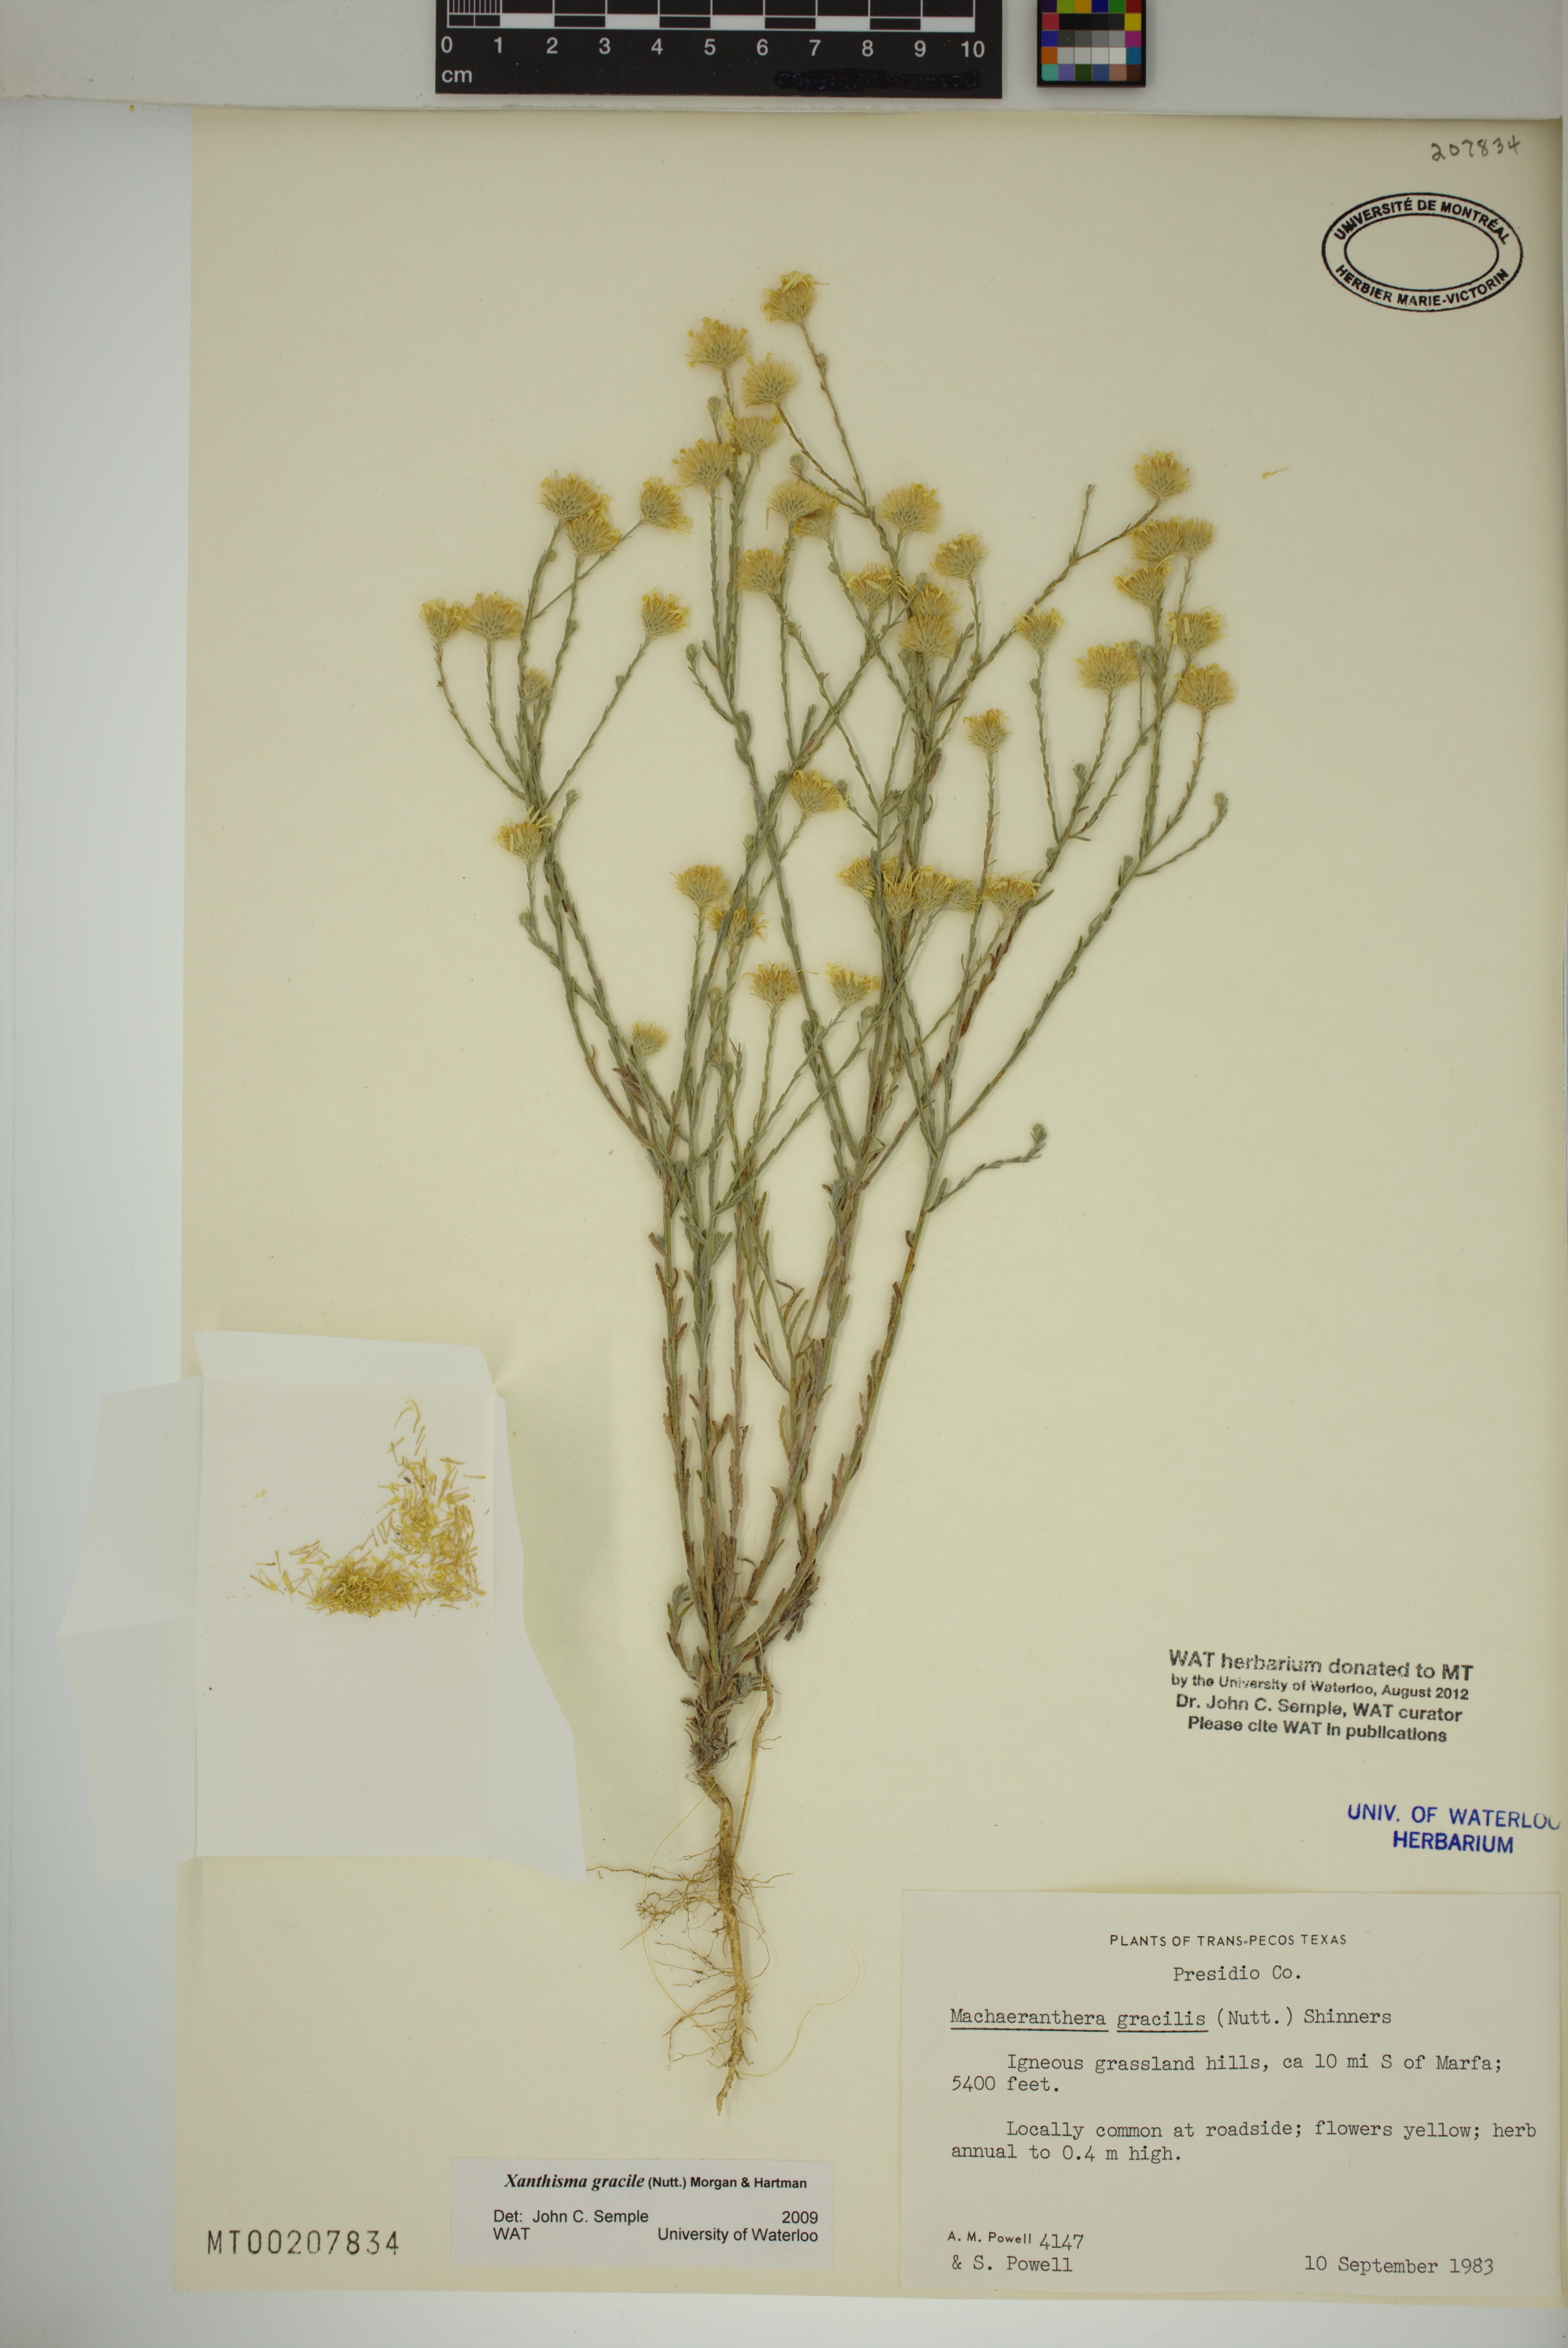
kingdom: Plantae
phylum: Tracheophyta
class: Magnoliopsida
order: Asterales
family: Asteraceae
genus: Xanthisma
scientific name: Xanthisma gracile
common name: Slender goldenweed
